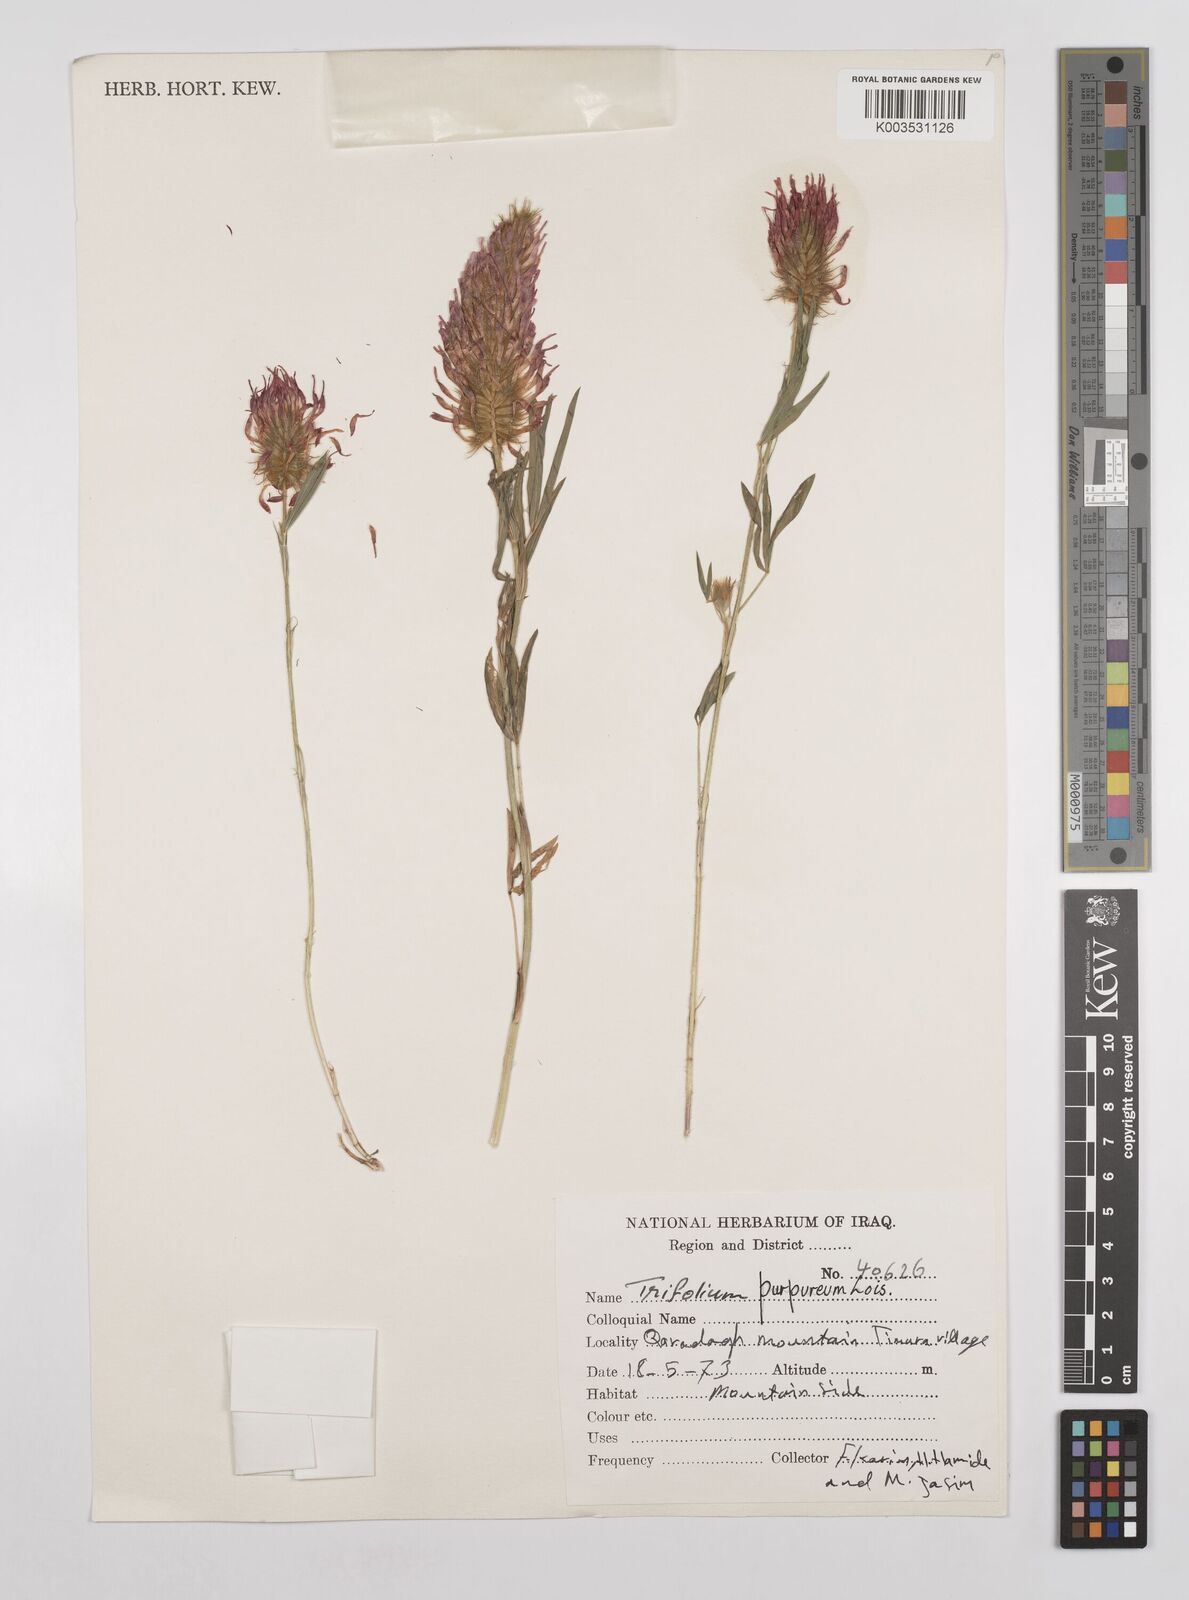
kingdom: Plantae
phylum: Tracheophyta
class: Magnoliopsida
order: Fabales
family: Fabaceae
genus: Trifolium
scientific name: Trifolium purpureum
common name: Purple clover
